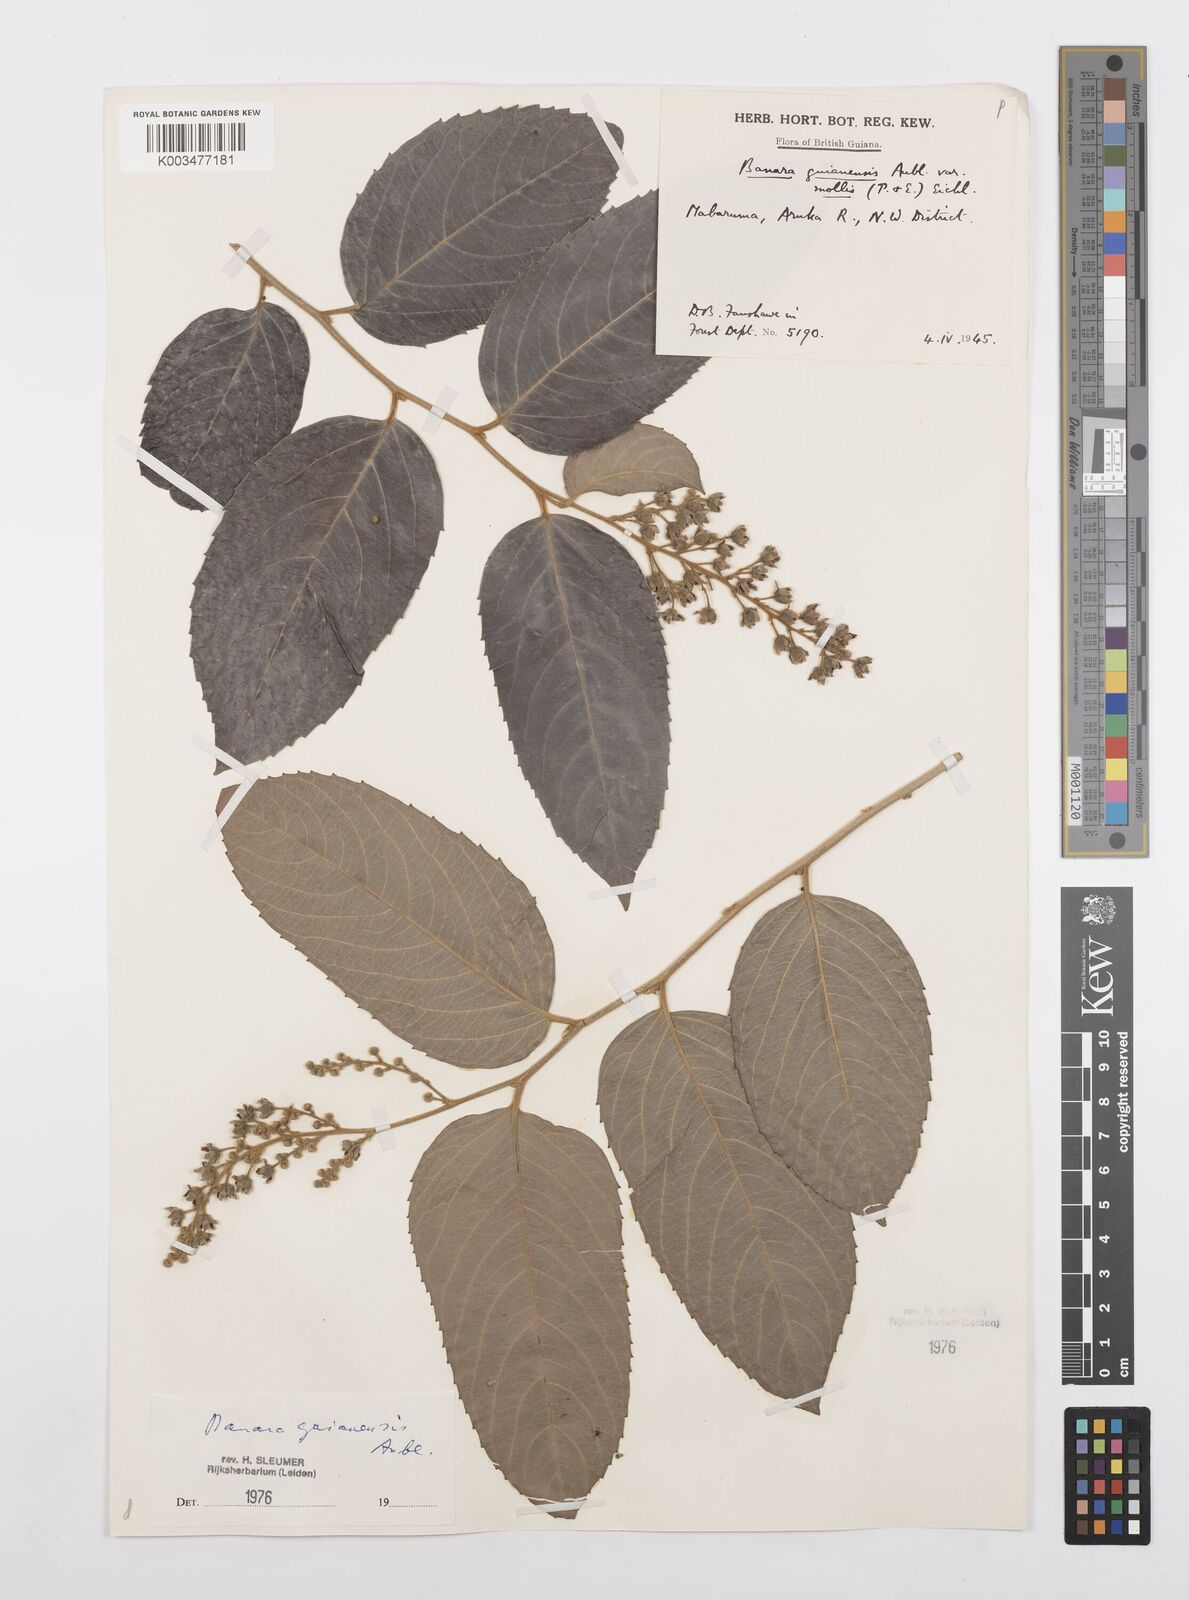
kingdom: Plantae
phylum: Tracheophyta
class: Magnoliopsida
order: Malpighiales
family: Salicaceae
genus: Banara
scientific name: Banara guianensis
